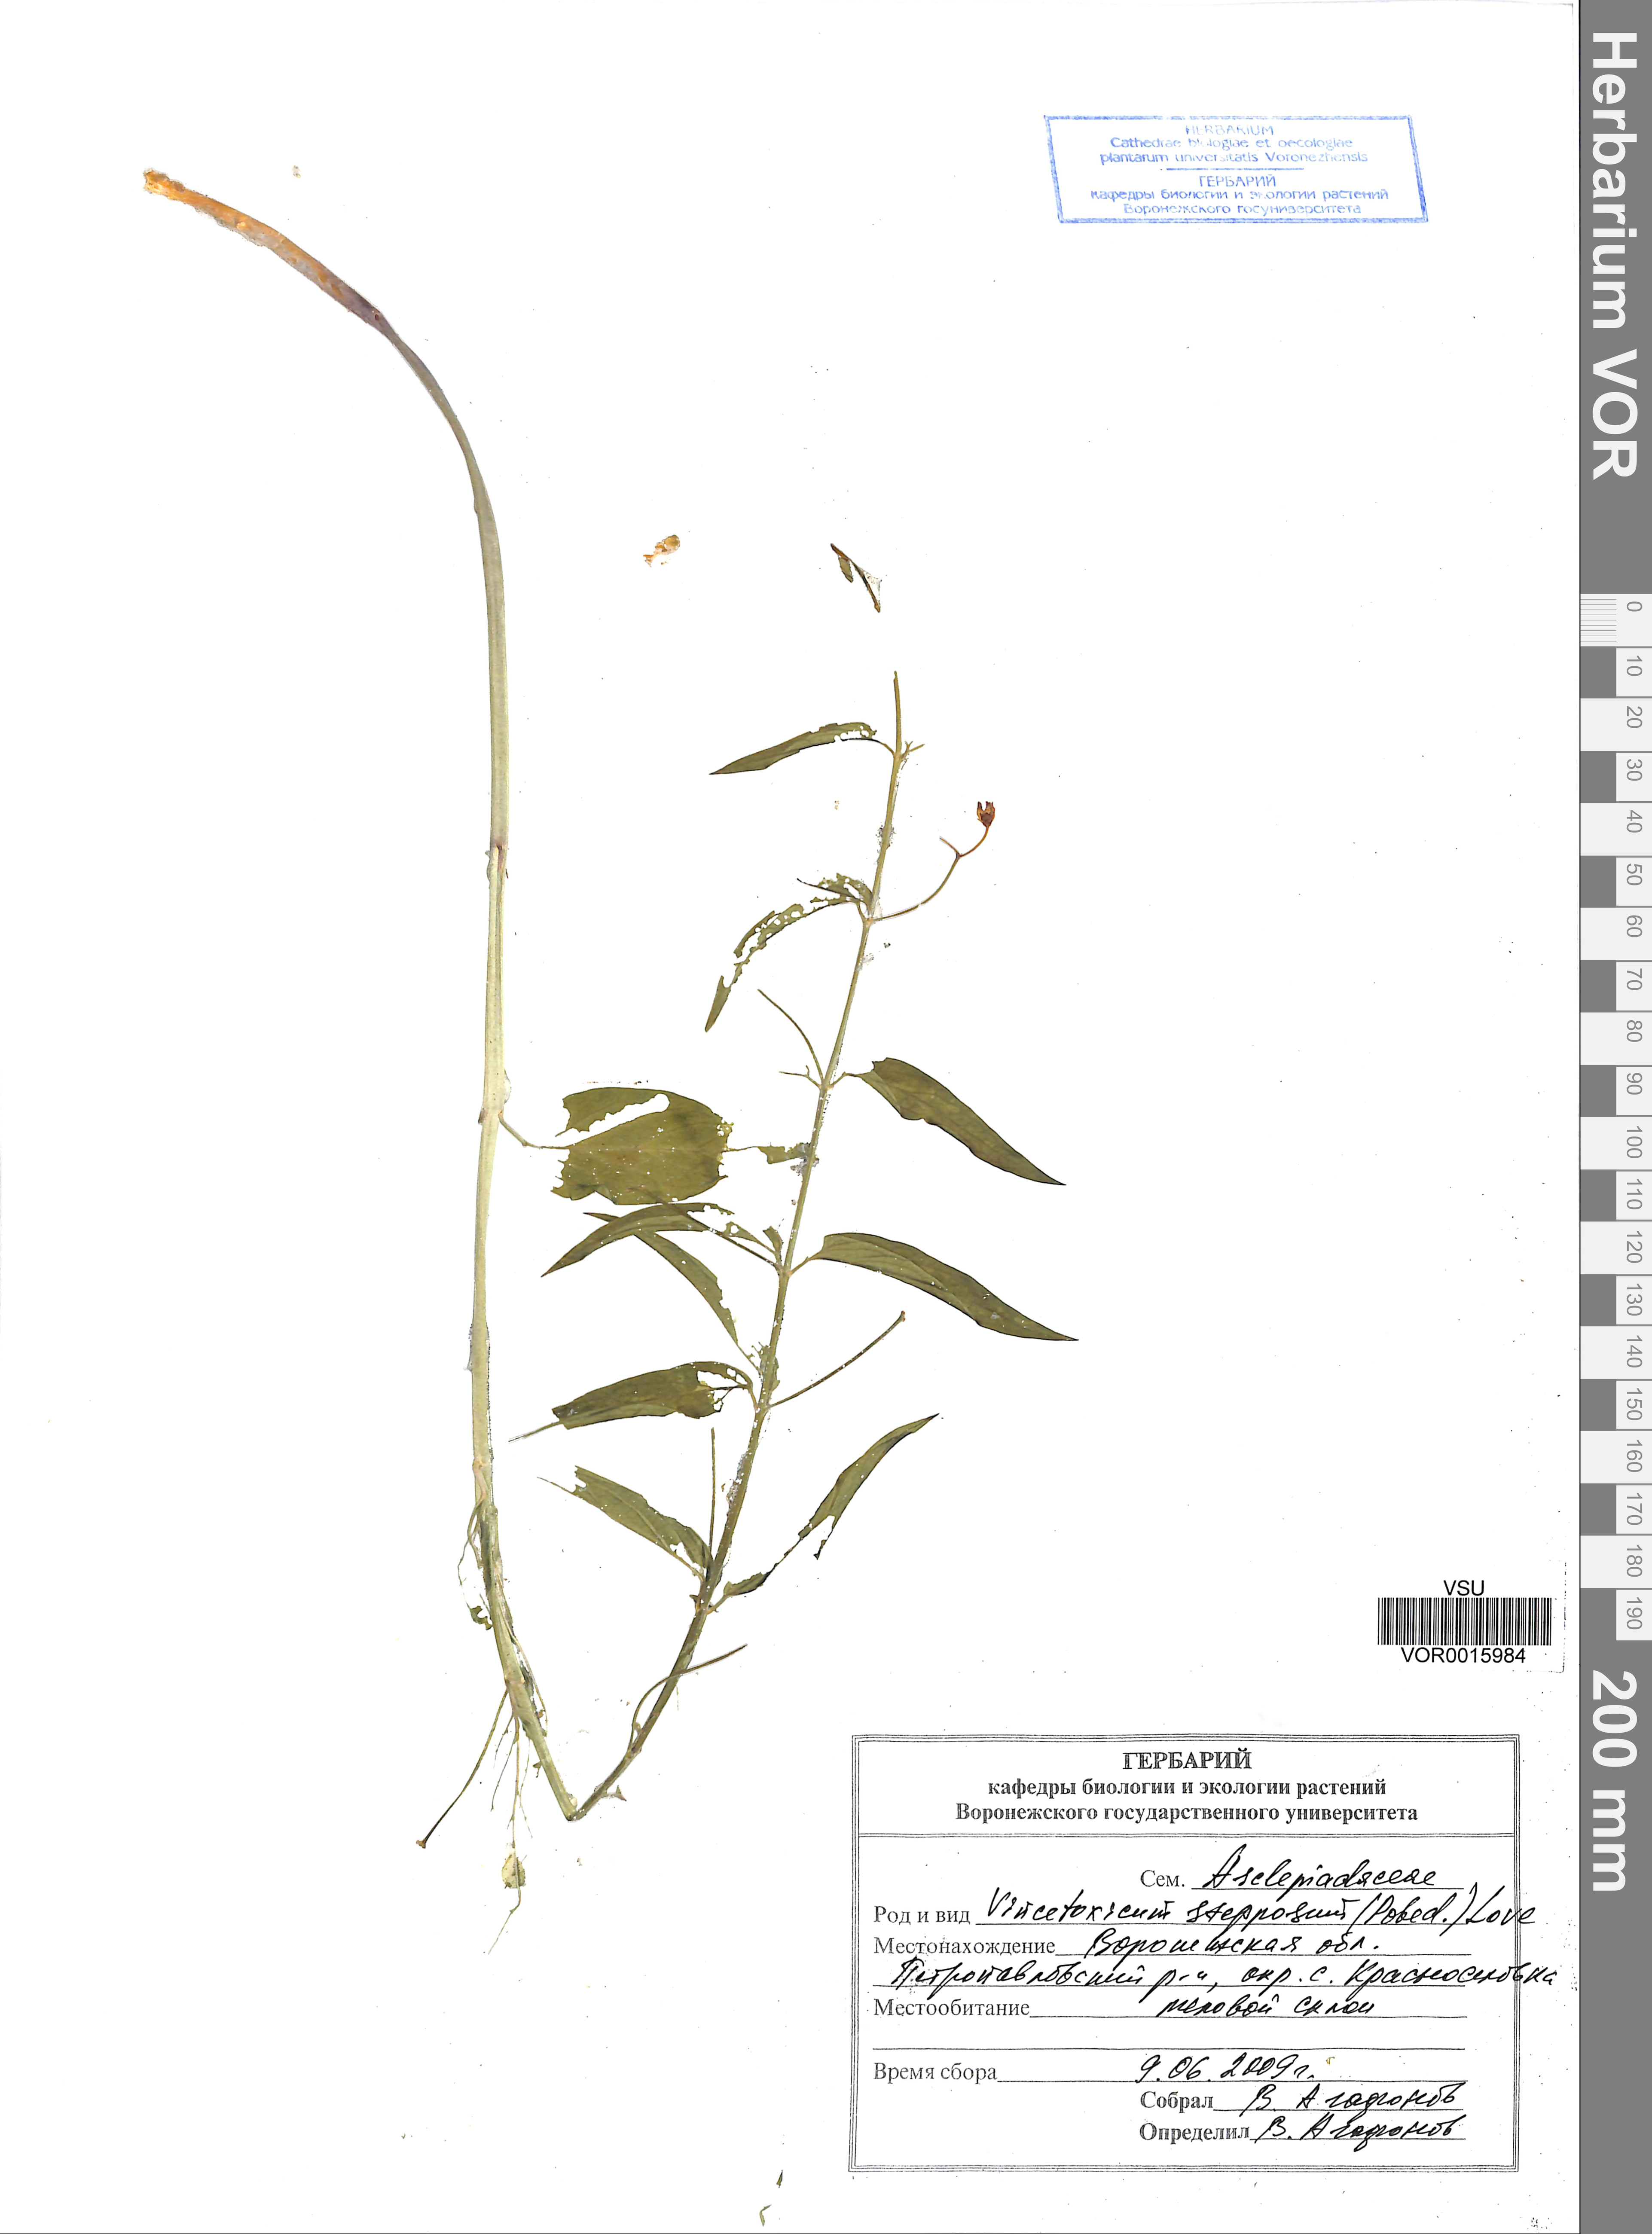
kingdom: Plantae
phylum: Tracheophyta
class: Magnoliopsida
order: Gentianales
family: Apocynaceae
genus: Vincetoxicum
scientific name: Vincetoxicum hirundinaria
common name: White swallowwort
